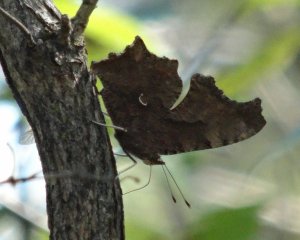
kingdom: Animalia
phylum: Arthropoda
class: Insecta
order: Lepidoptera
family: Nymphalidae
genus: Polygonia
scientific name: Polygonia comma
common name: Eastern Comma
